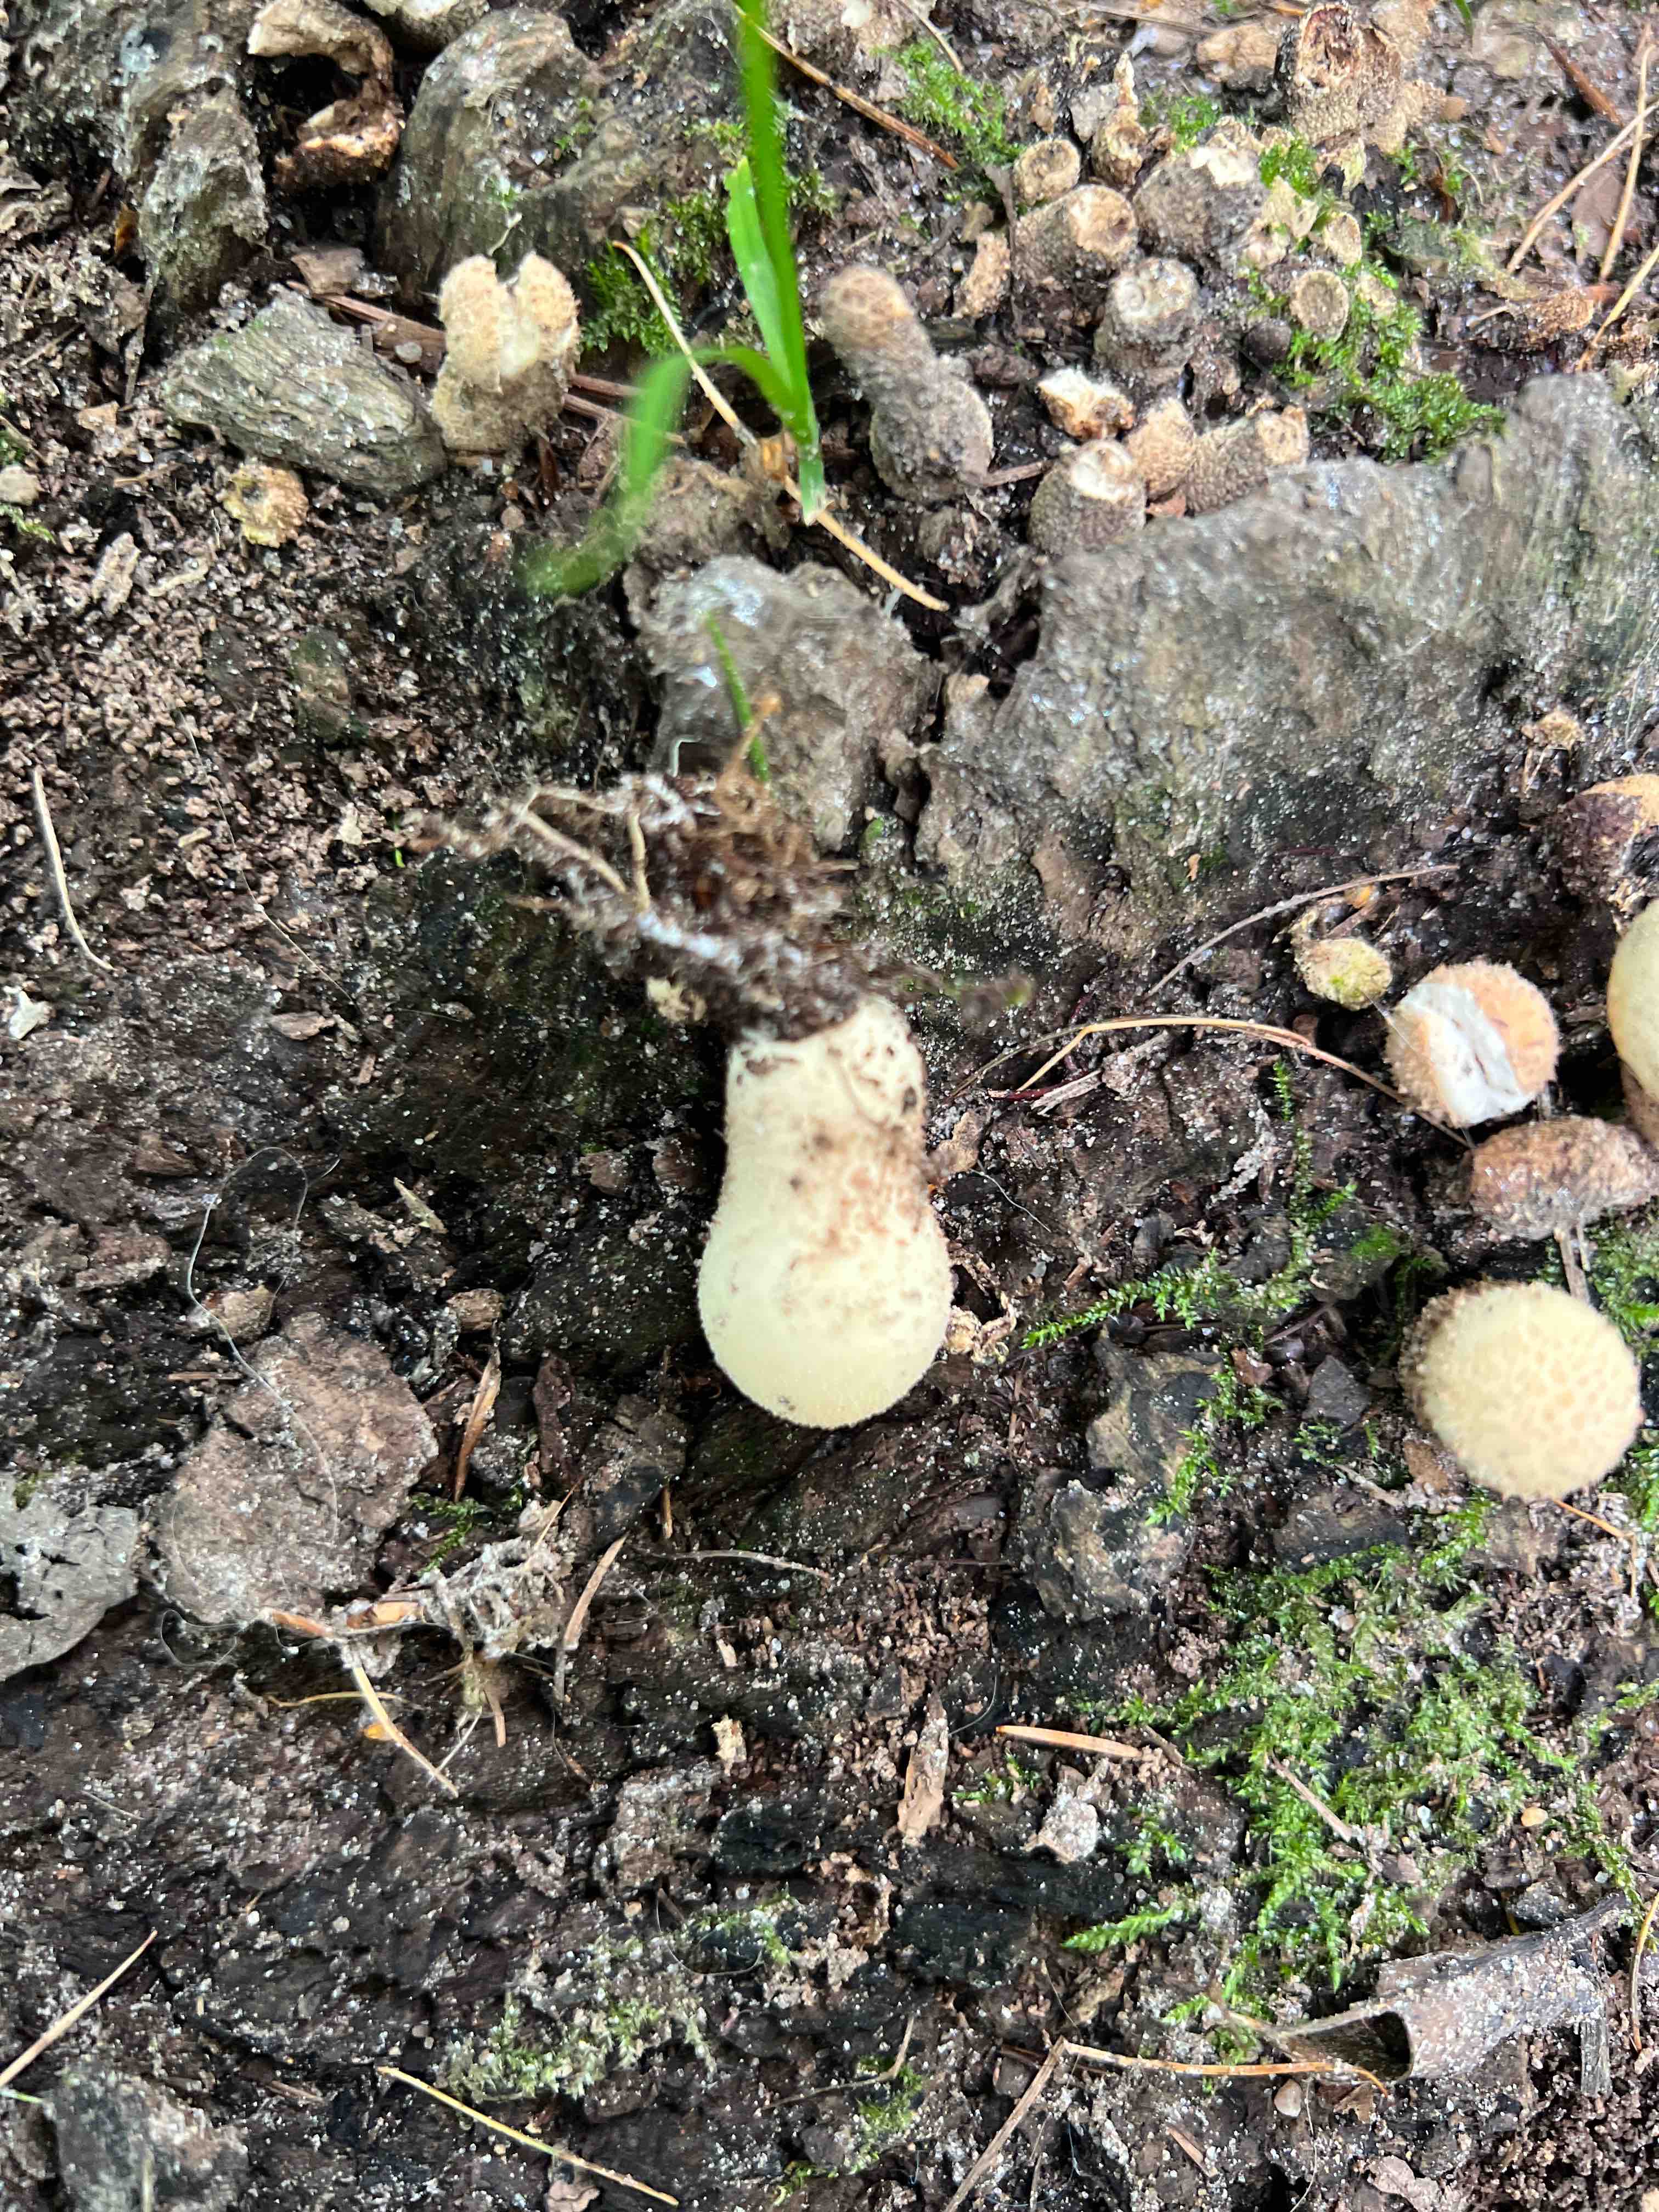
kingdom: Fungi
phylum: Basidiomycota
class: Agaricomycetes
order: Agaricales
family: Lycoperdaceae
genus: Apioperdon
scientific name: Apioperdon pyriforme
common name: pære-støvbold
